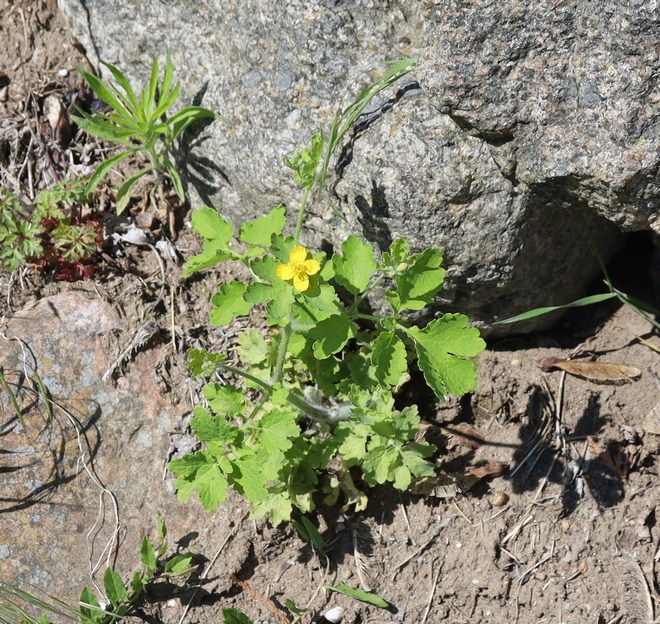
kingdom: Plantae
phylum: Tracheophyta
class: Magnoliopsida
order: Ranunculales
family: Papaveraceae
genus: Chelidonium
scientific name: Chelidonium majus
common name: Svaleurt
